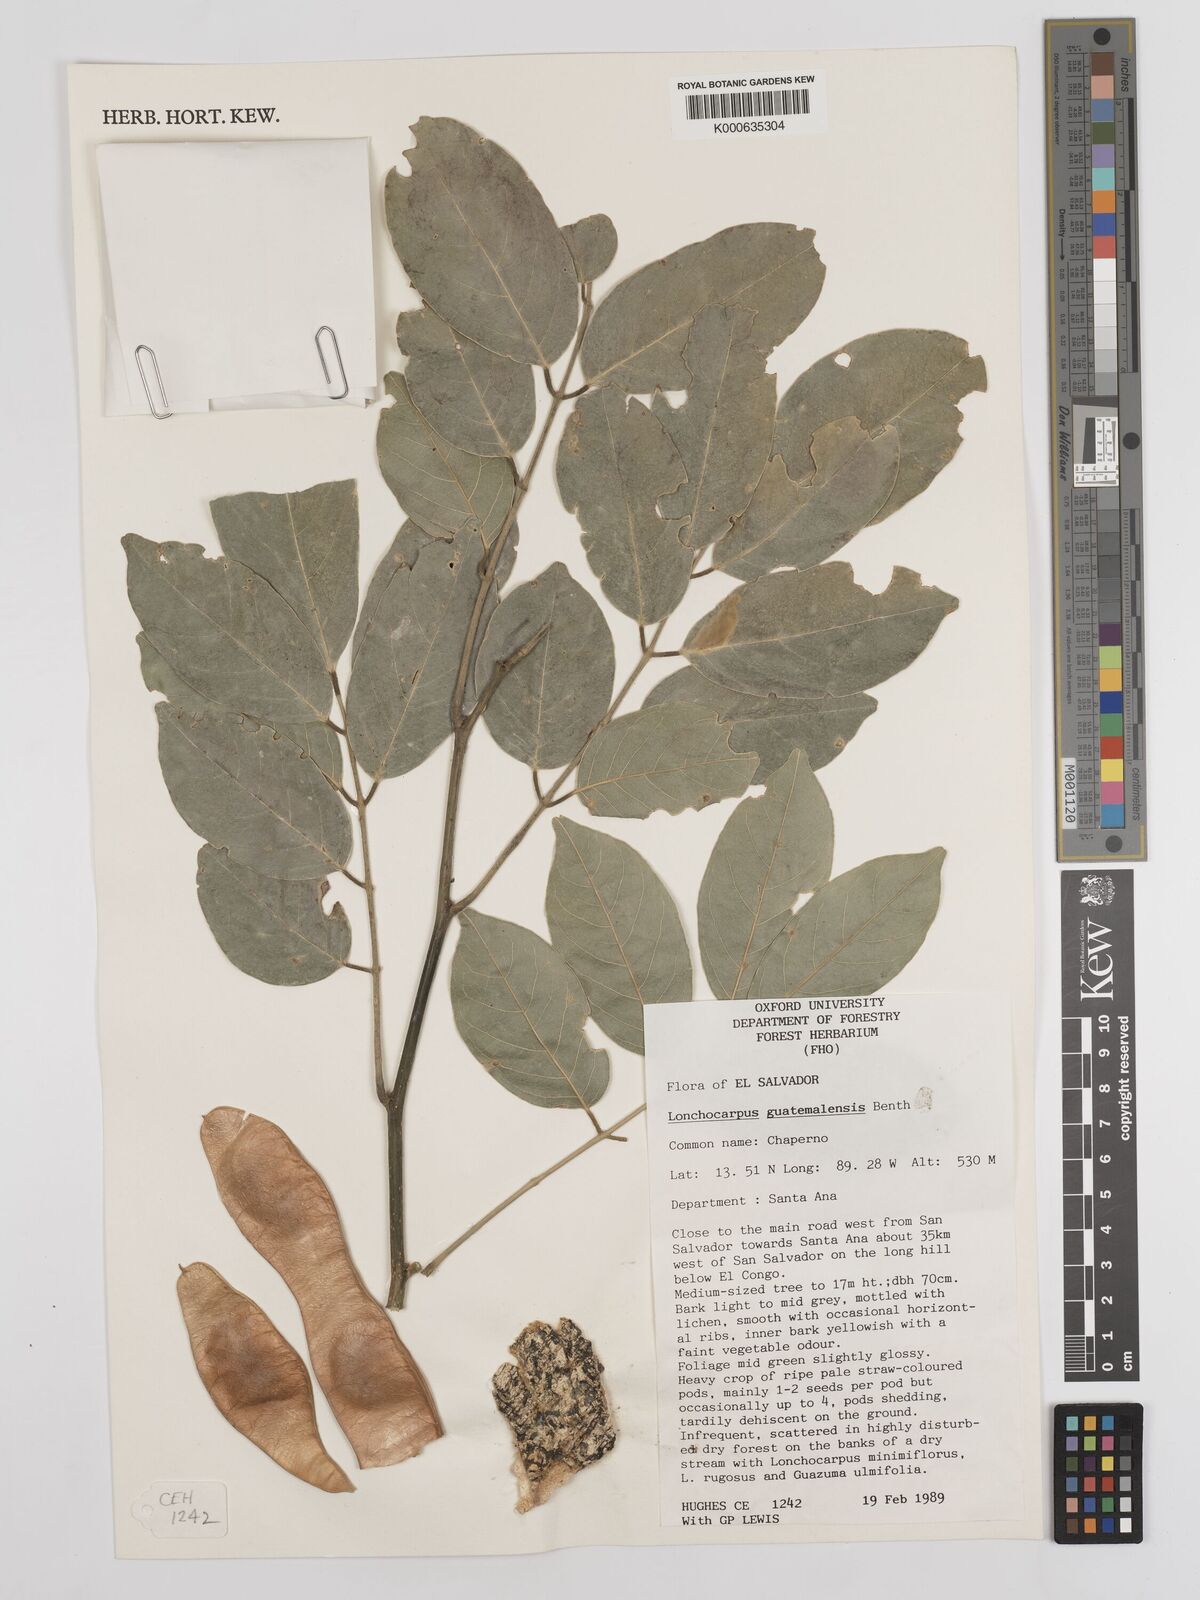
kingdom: Plantae
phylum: Tracheophyta
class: Magnoliopsida
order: Fabales
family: Fabaceae
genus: Lonchocarpus
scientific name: Lonchocarpus guatemalensis
